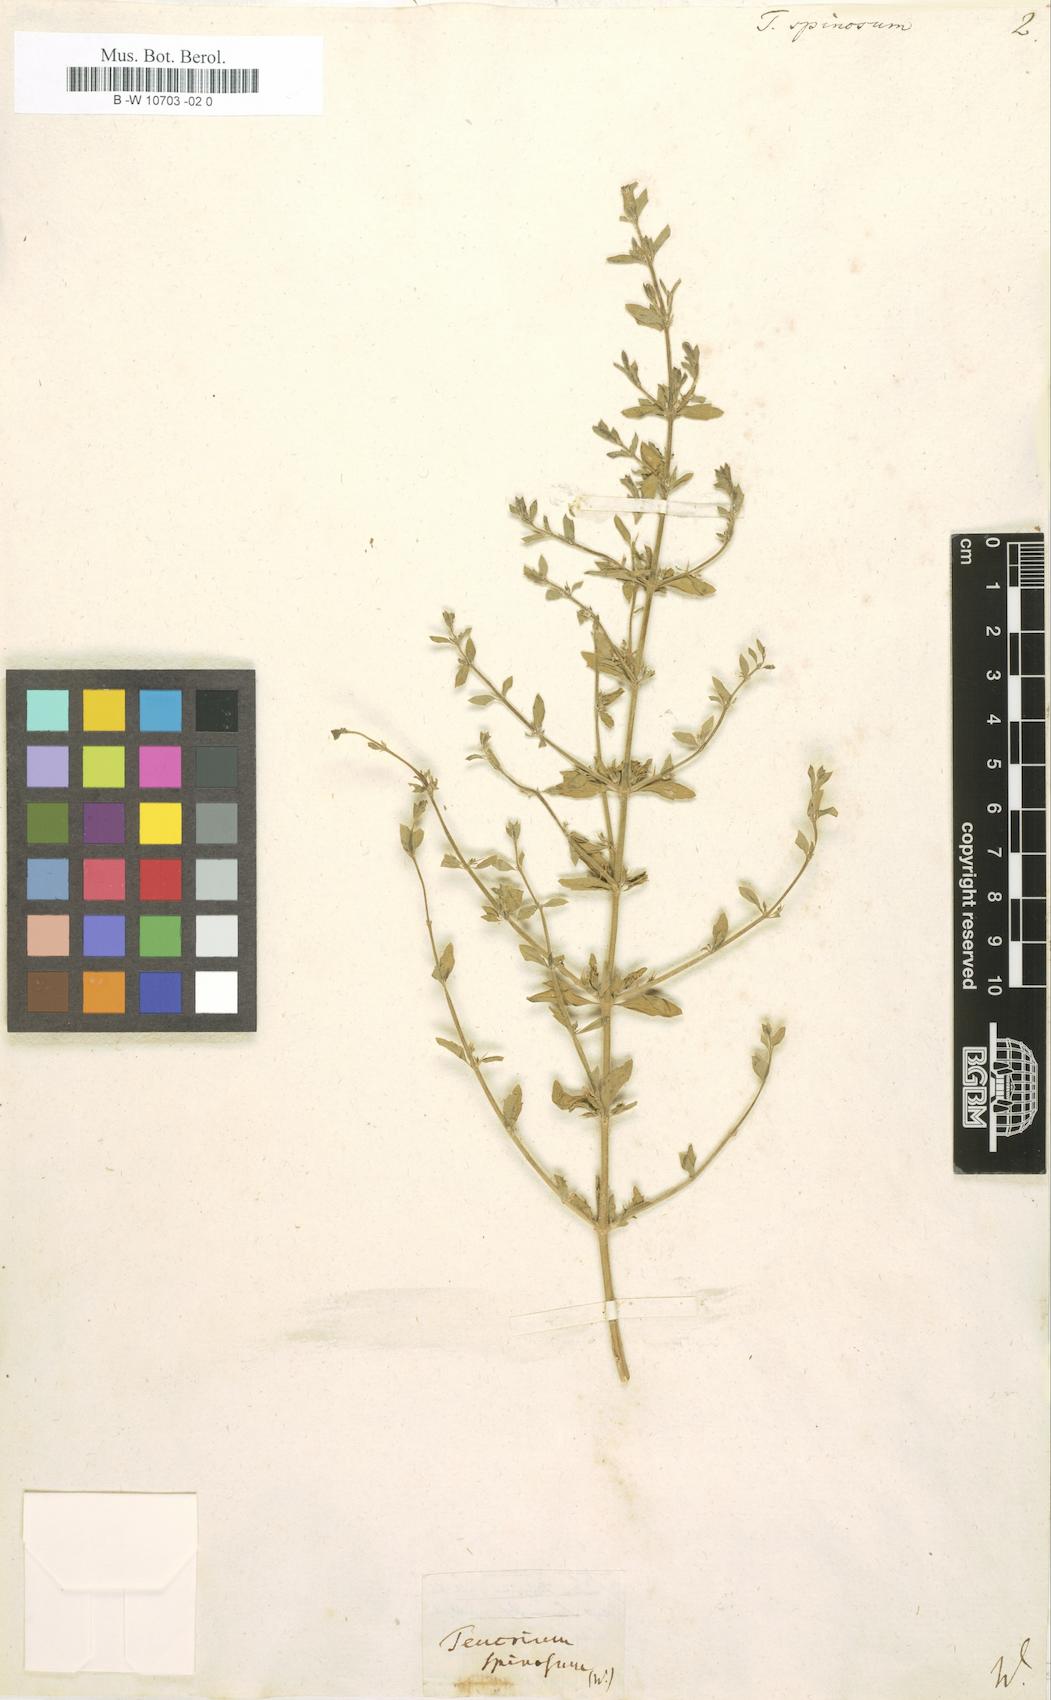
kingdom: Plantae
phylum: Tracheophyta
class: Magnoliopsida
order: Lamiales
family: Lamiaceae
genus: Teucrium
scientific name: Teucrium spinosum
